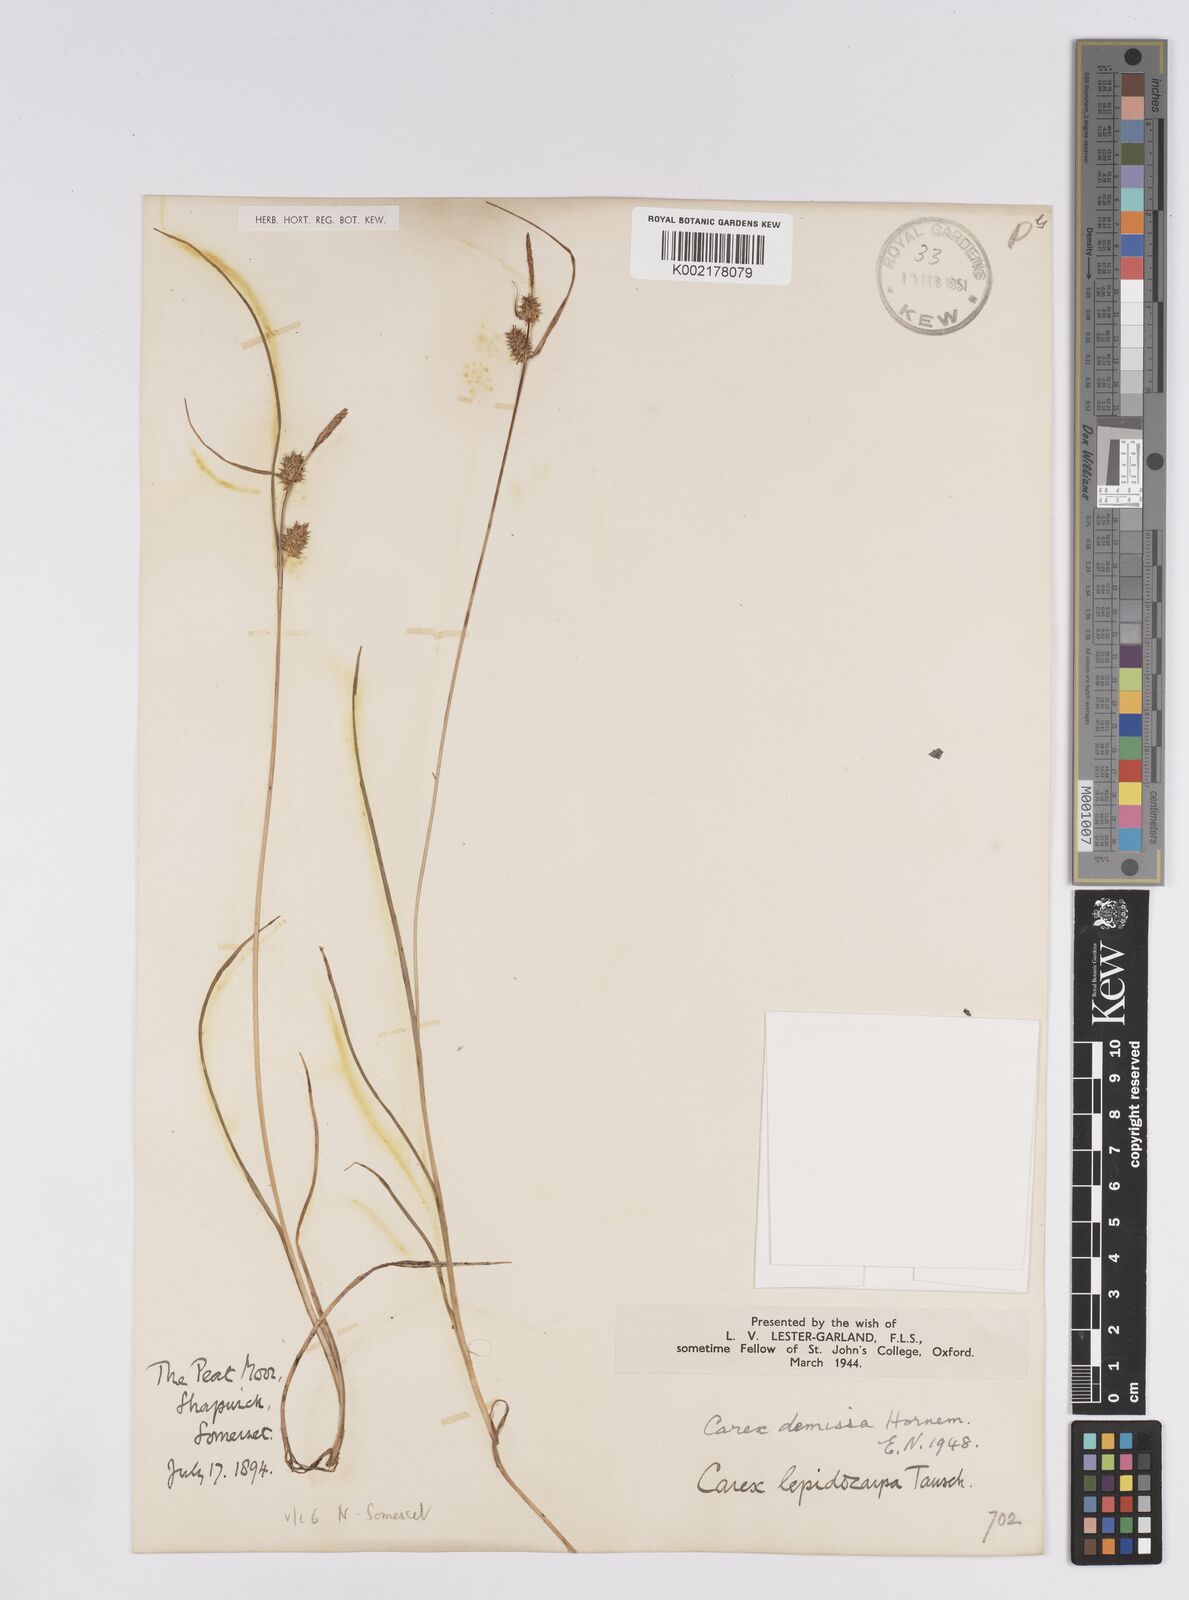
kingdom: Plantae
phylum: Tracheophyta
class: Liliopsida
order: Poales
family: Cyperaceae
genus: Carex
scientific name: Carex demissa
